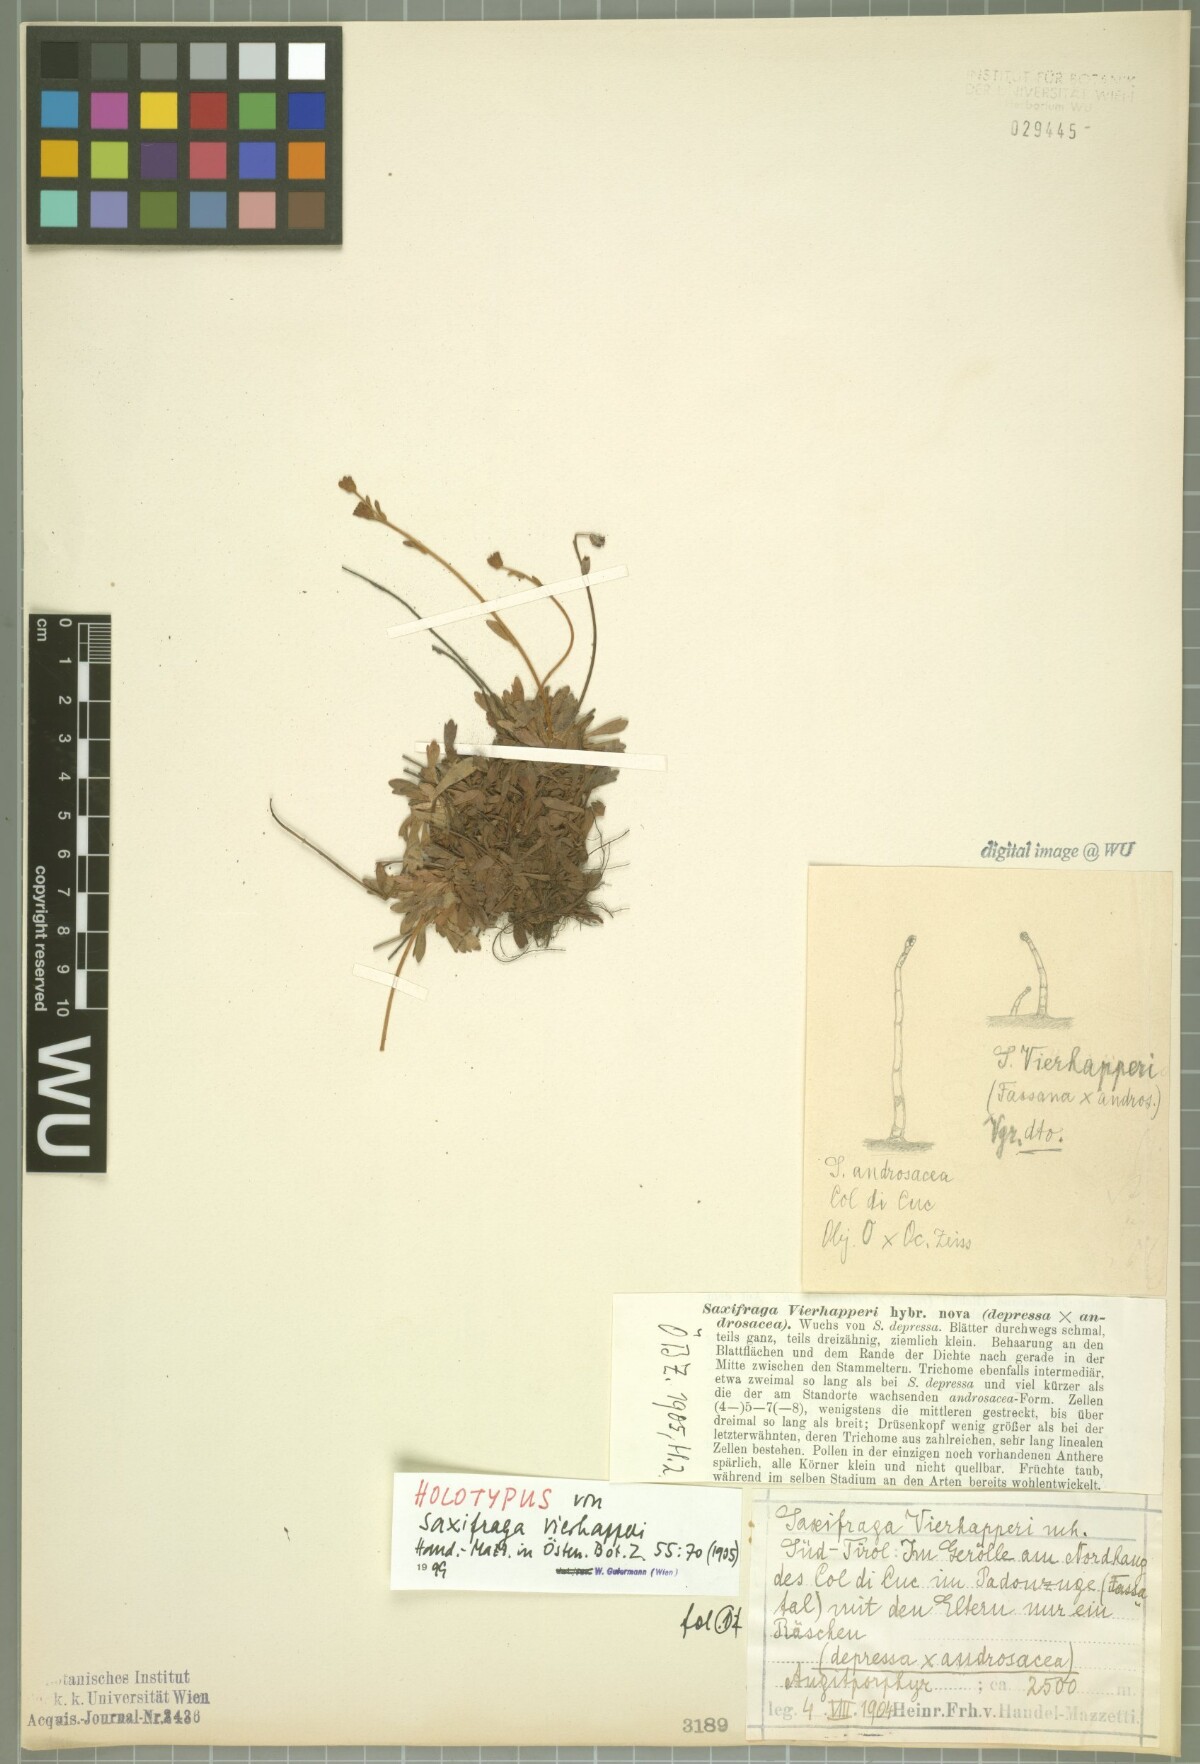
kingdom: Plantae
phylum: Tracheophyta
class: Magnoliopsida
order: Saxifragales
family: Saxifragaceae
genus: Saxifraga
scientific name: Saxifraga vierhapperi
